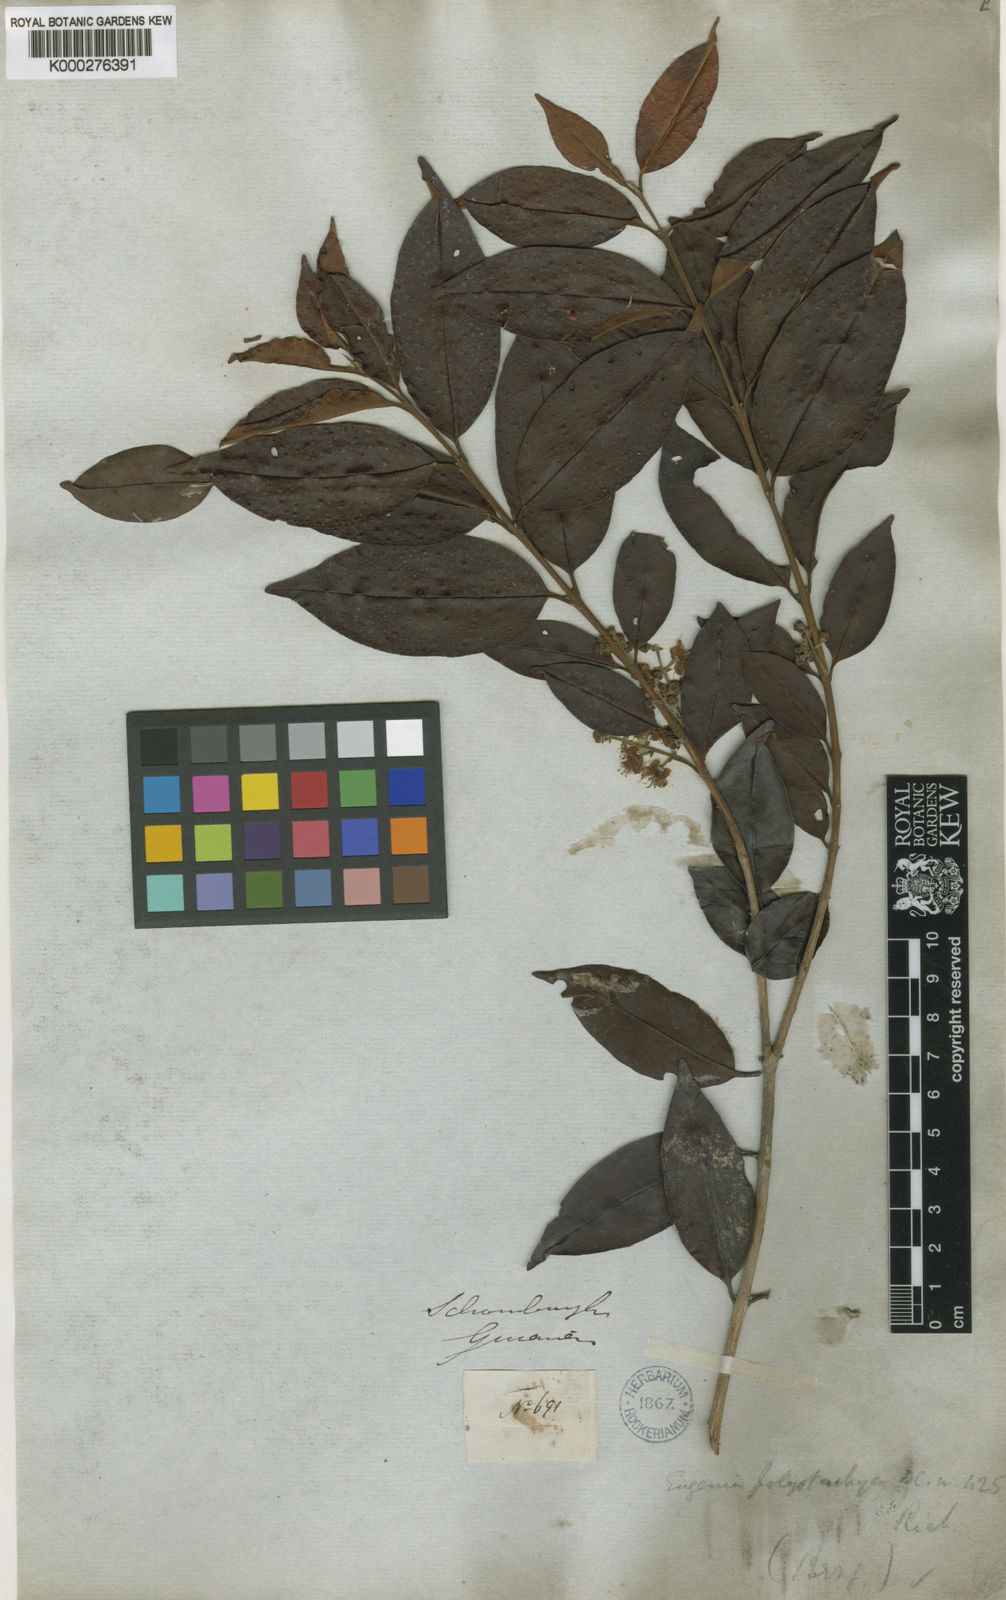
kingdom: Plantae
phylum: Tracheophyta
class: Magnoliopsida
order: Myrtales
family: Myrtaceae
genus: Eugenia
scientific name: Eugenia limbosa
